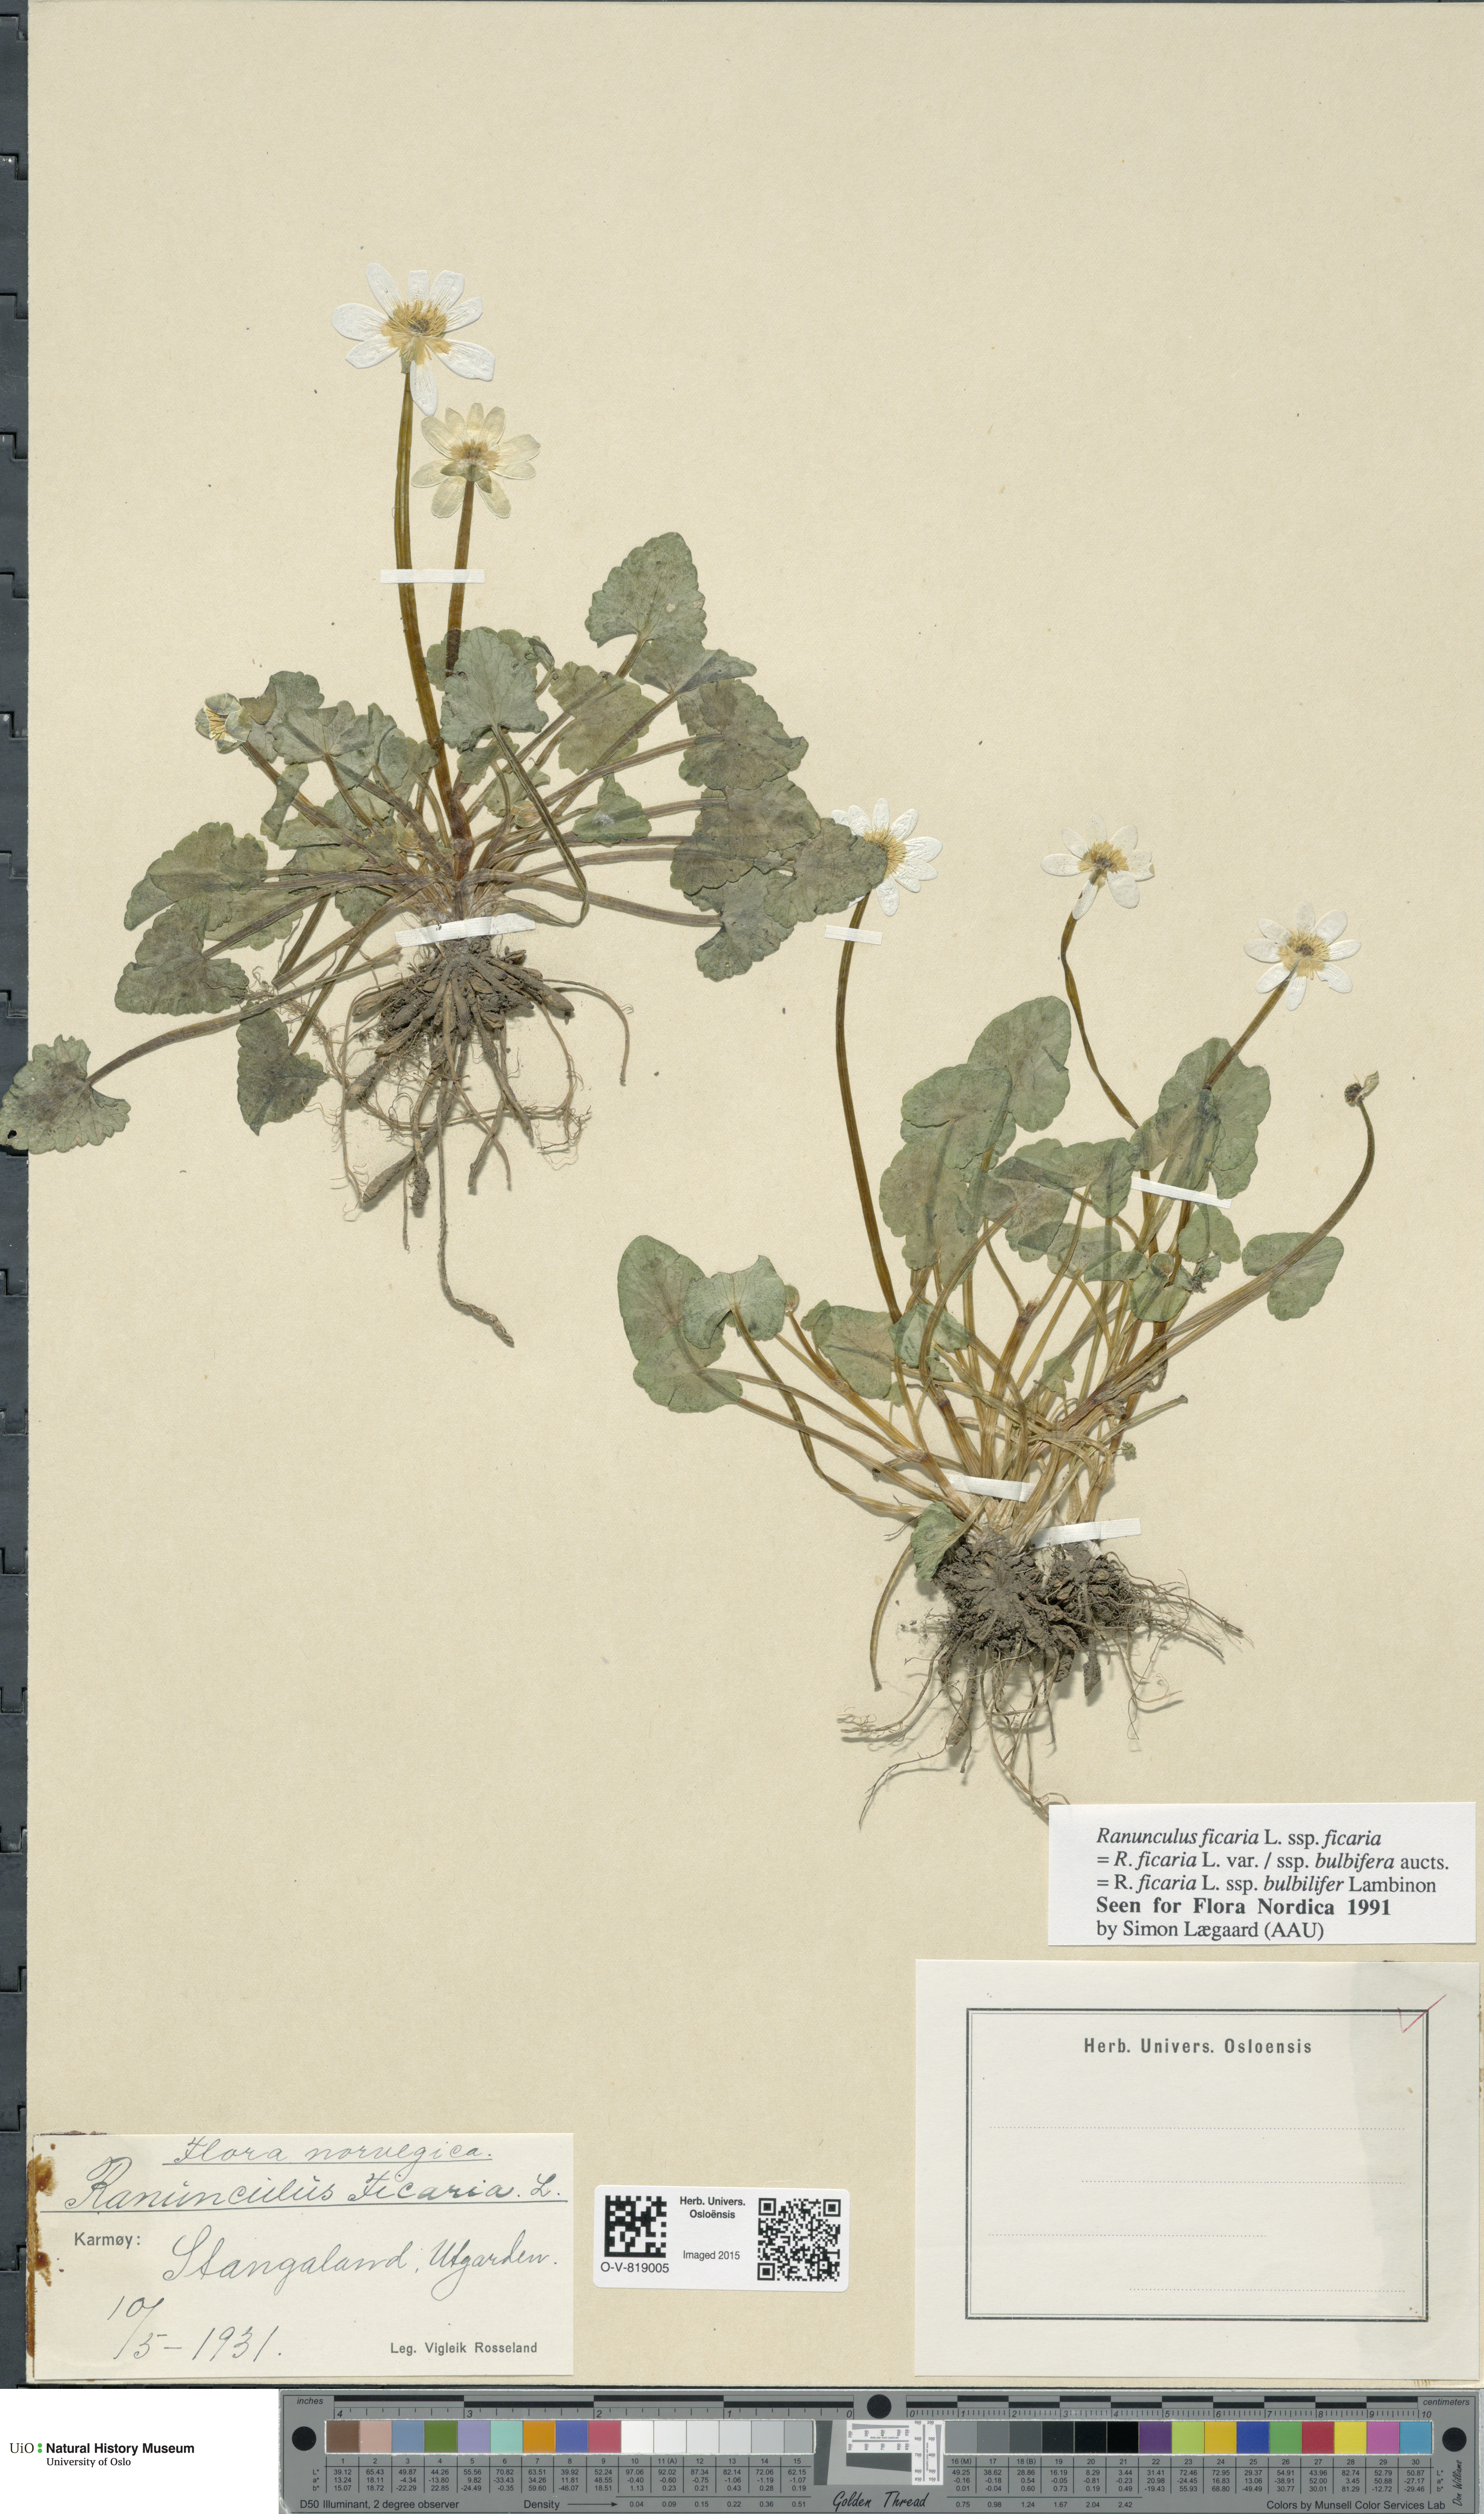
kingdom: Plantae
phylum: Tracheophyta
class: Magnoliopsida
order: Ranunculales
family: Ranunculaceae
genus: Ficaria
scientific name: Ficaria verna
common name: Lesser celandine
